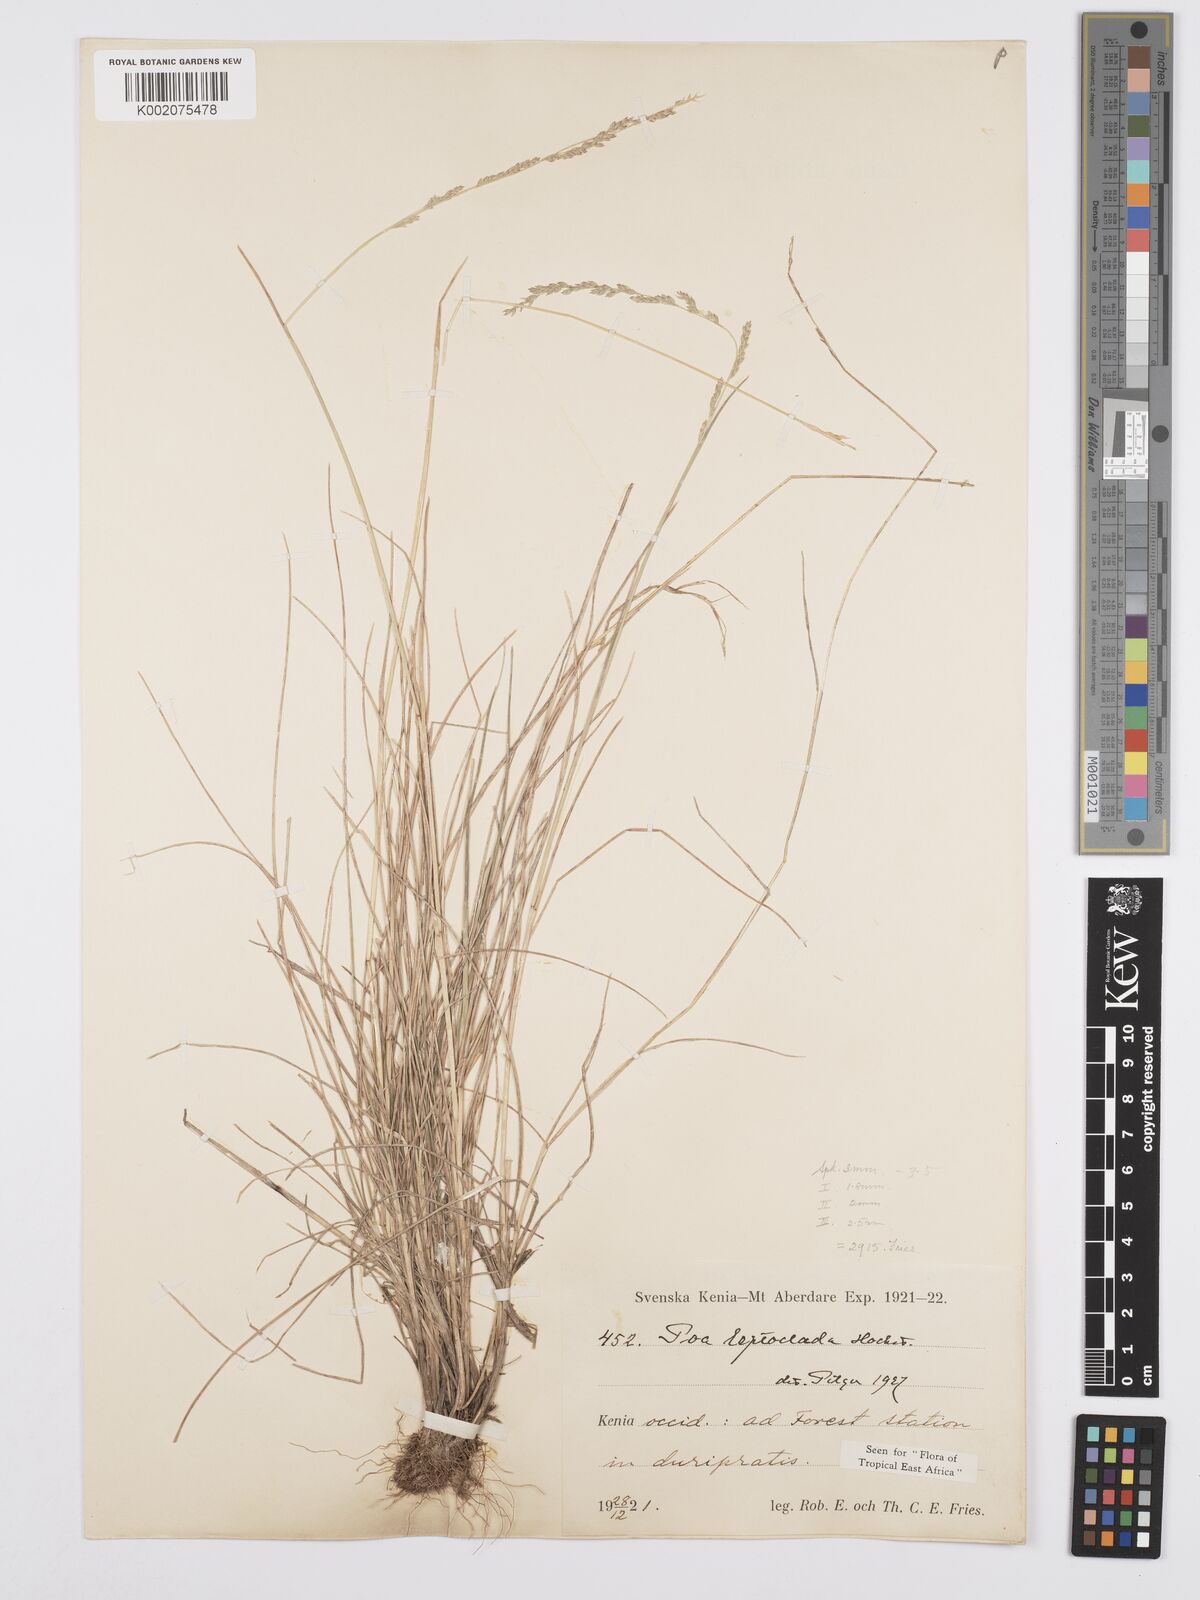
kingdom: Plantae
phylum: Tracheophyta
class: Liliopsida
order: Poales
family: Poaceae
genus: Poa
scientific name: Poa leptoclada
